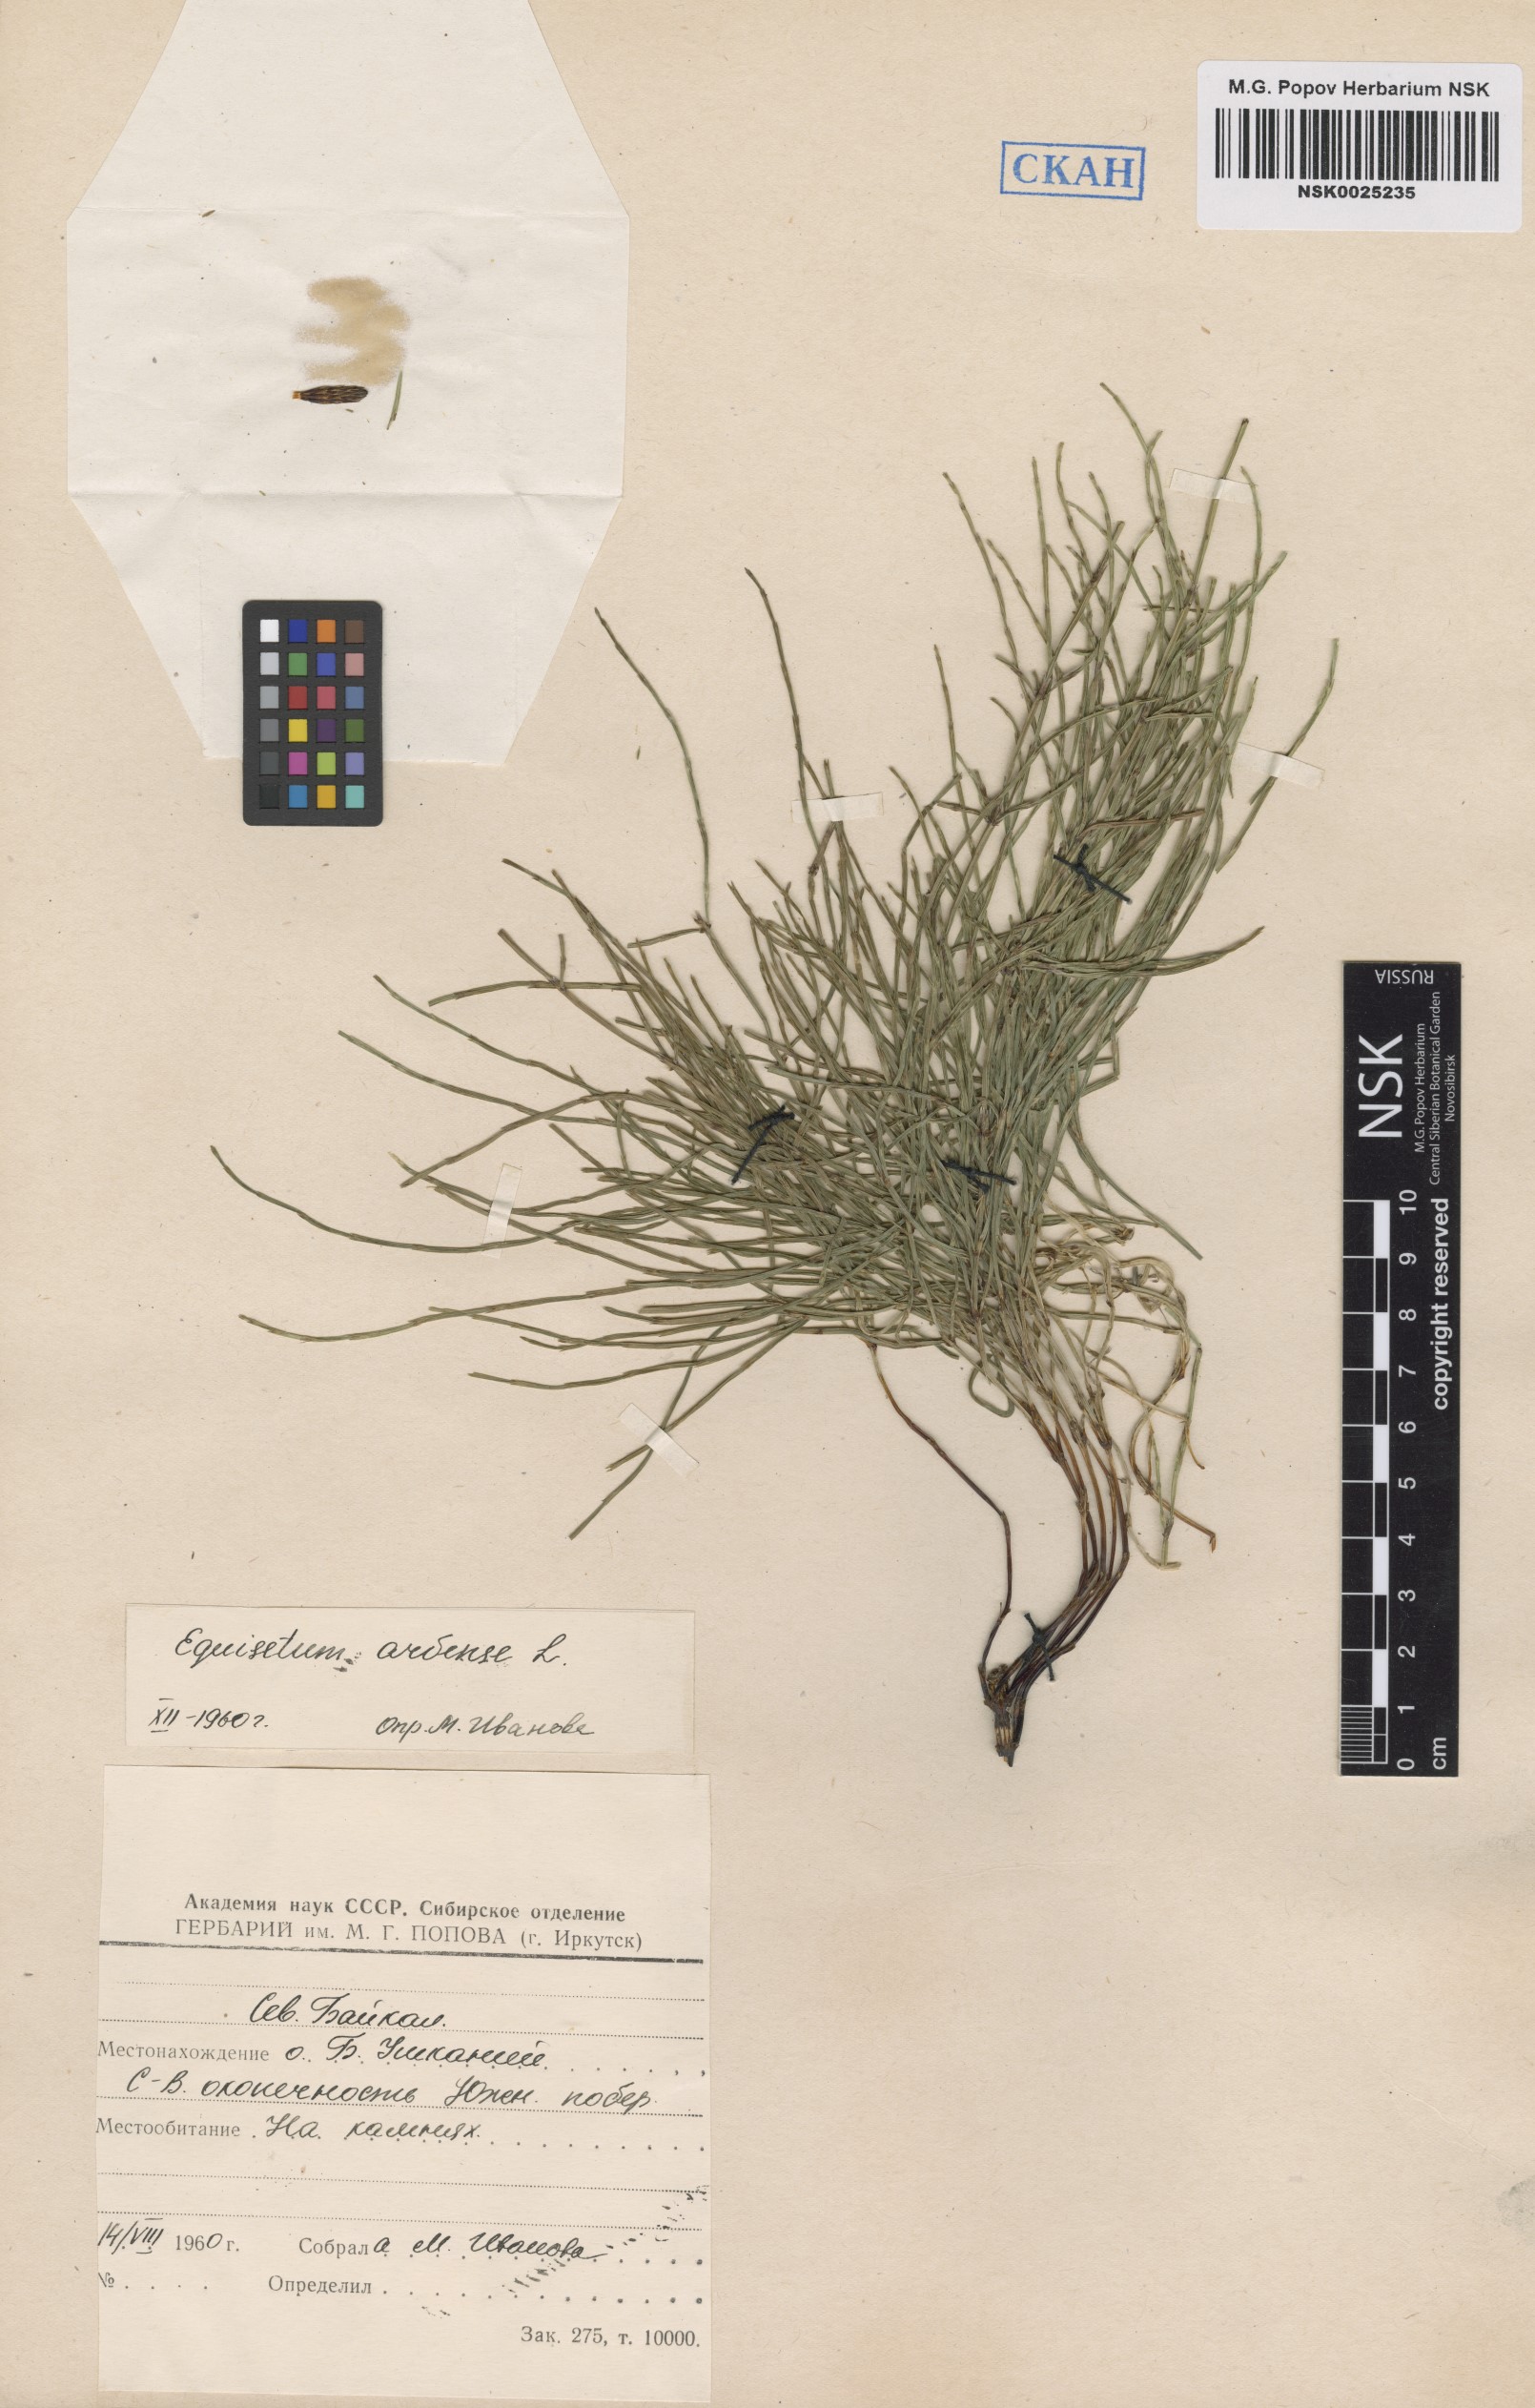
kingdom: Plantae
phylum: Tracheophyta
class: Polypodiopsida
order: Equisetales
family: Equisetaceae
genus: Equisetum
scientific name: Equisetum arvense
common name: Field horsetail
